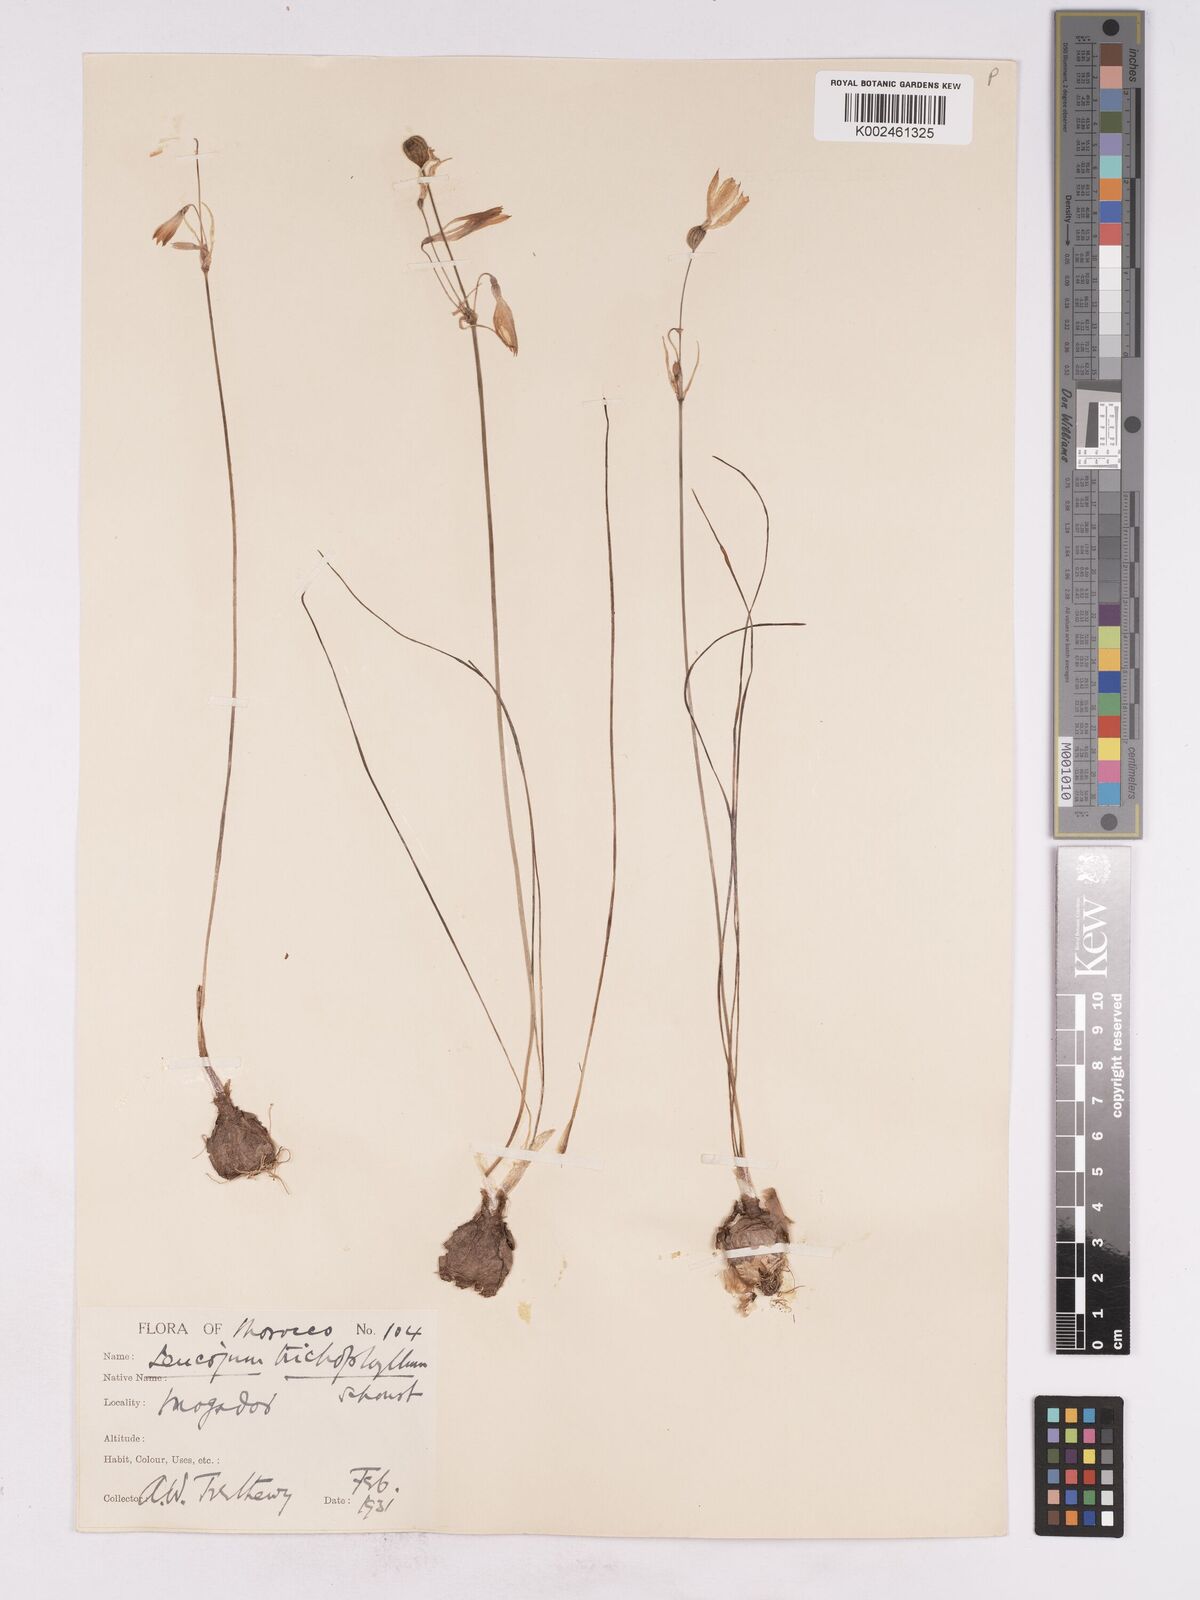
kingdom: Plantae
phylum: Tracheophyta
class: Liliopsida
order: Asparagales
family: Amaryllidaceae
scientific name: Amaryllidaceae
